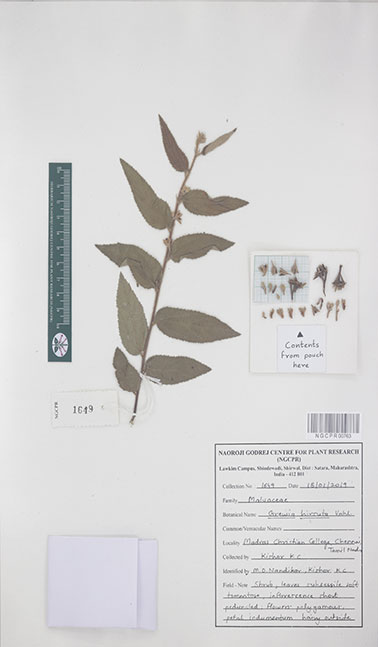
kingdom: Plantae
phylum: Tracheophyta
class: Magnoliopsida
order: Malvales
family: Malvaceae
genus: Grewia
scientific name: Grewia hirsuta
